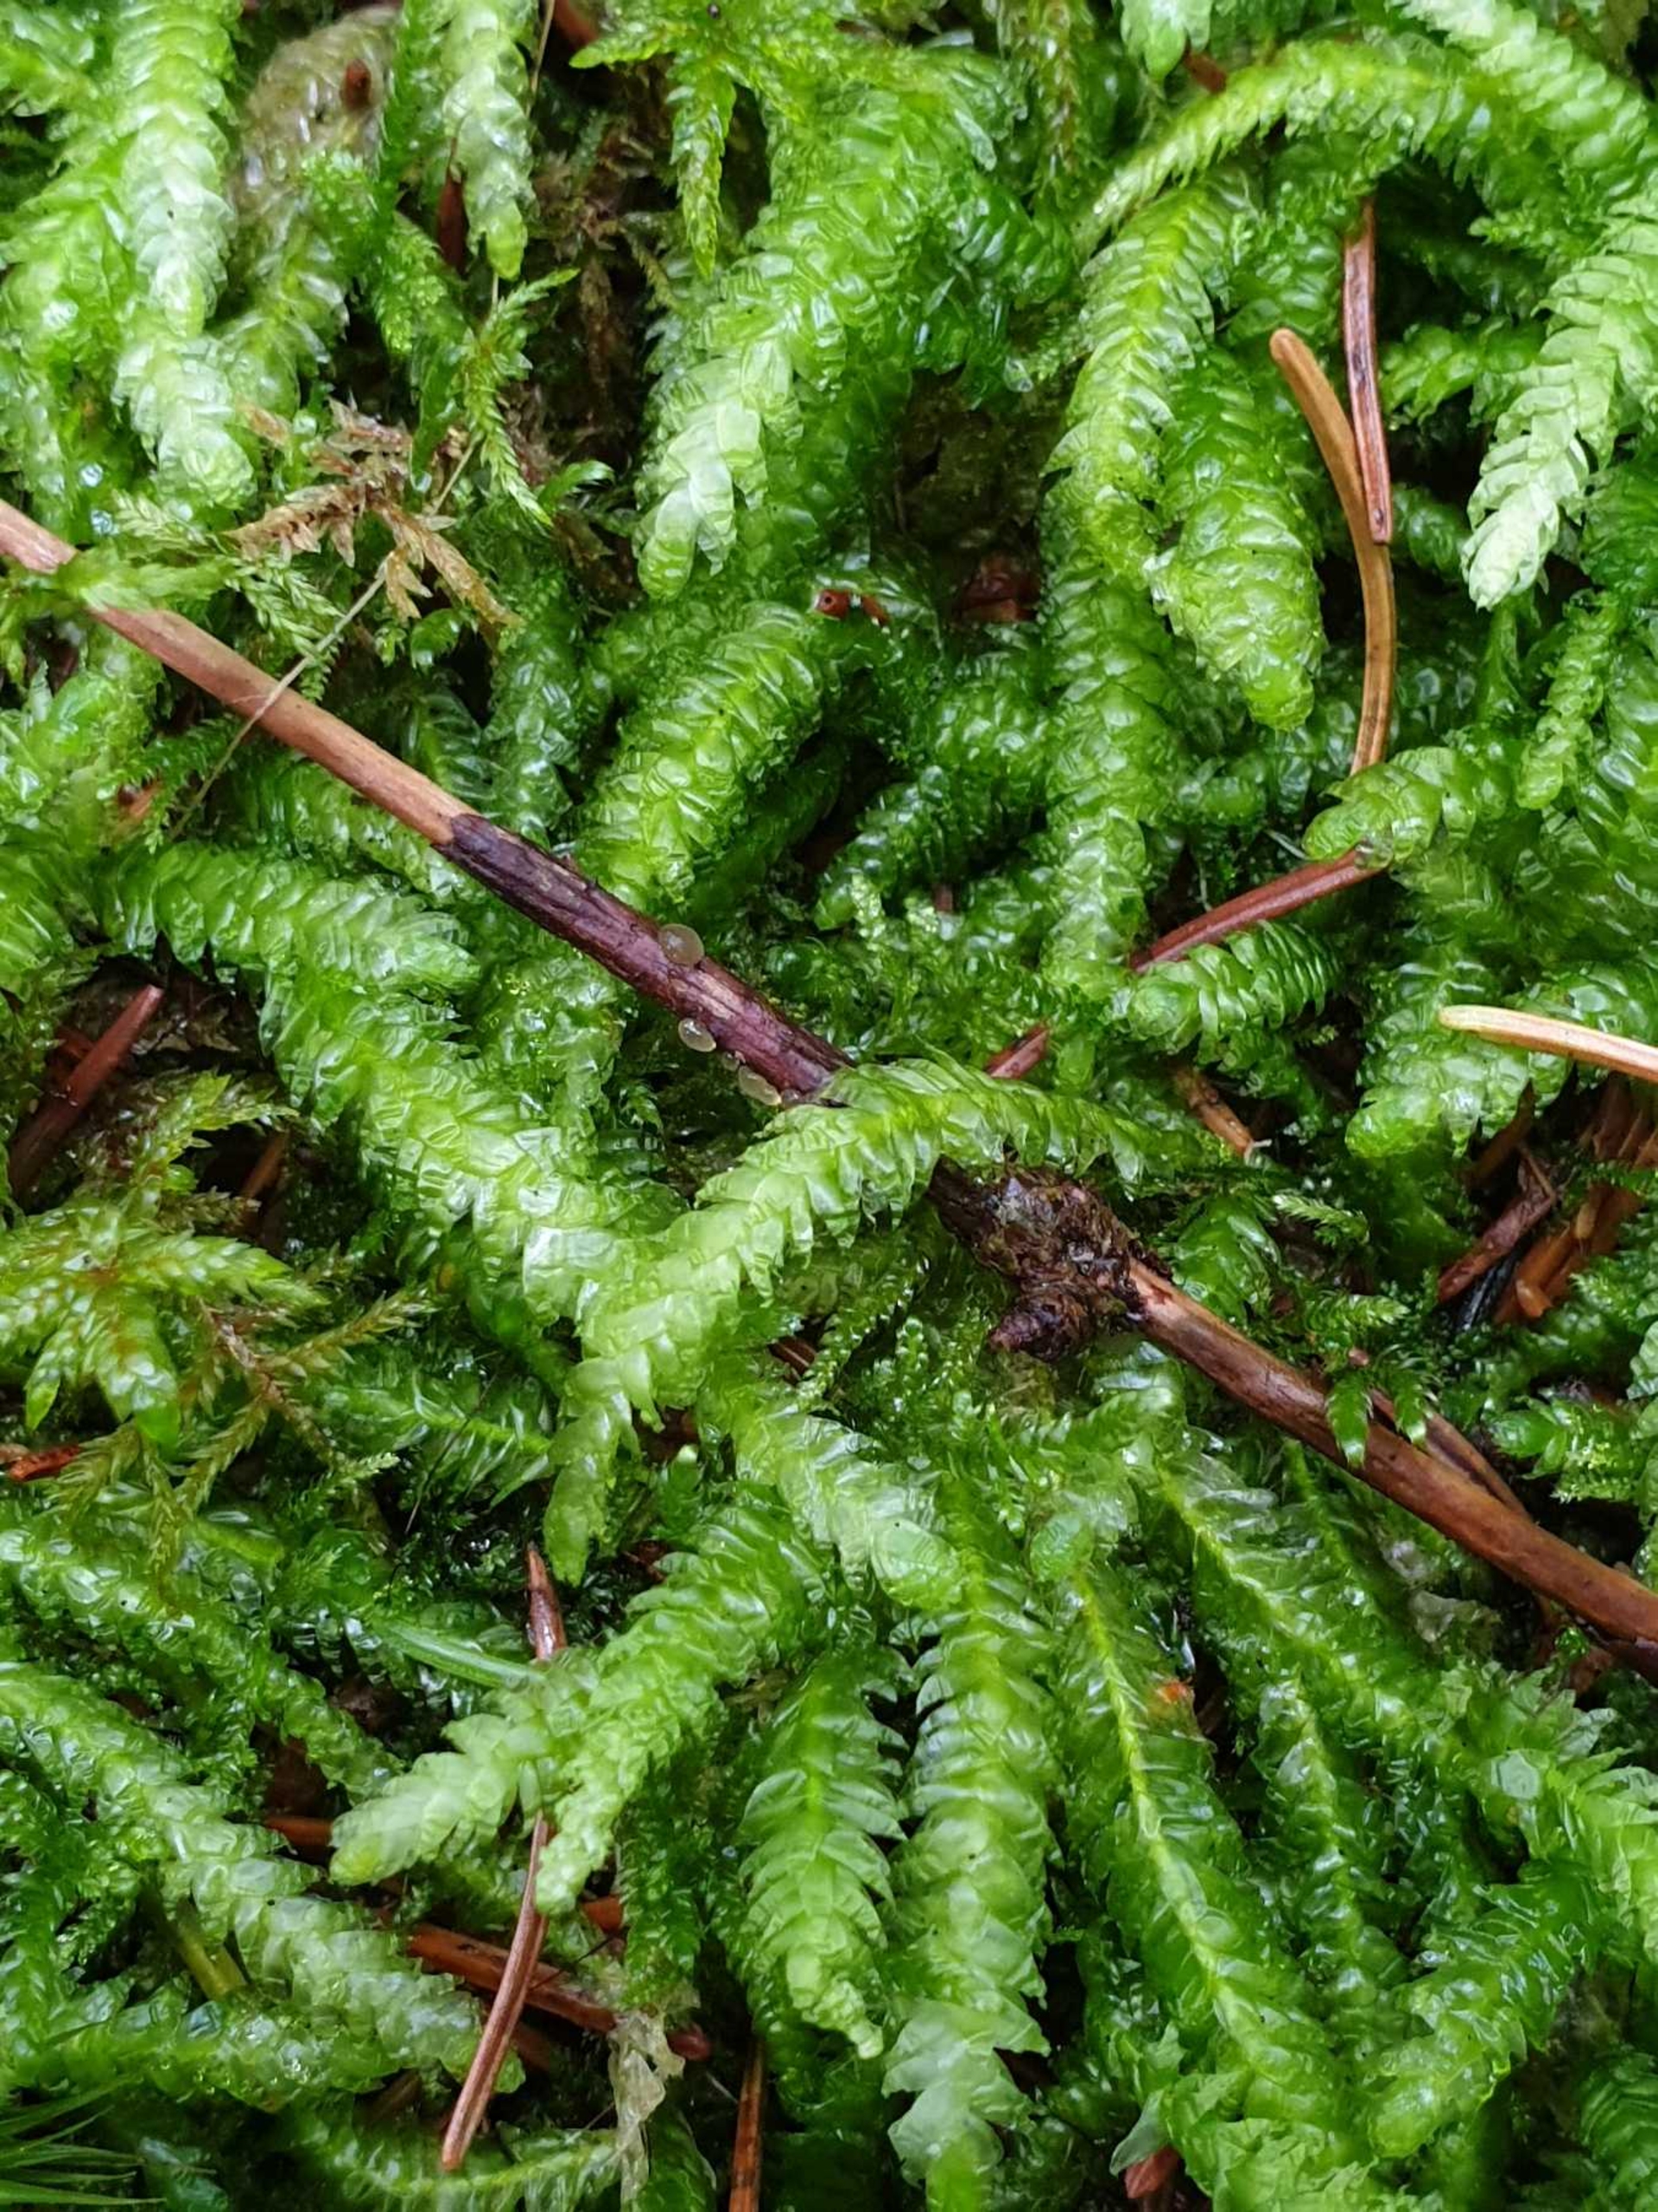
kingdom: Plantae
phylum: Bryophyta
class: Bryopsida
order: Hypnales
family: Plagiotheciaceae
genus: Plagiothecium
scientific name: Plagiothecium undulatum
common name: Bølget tæppemos
